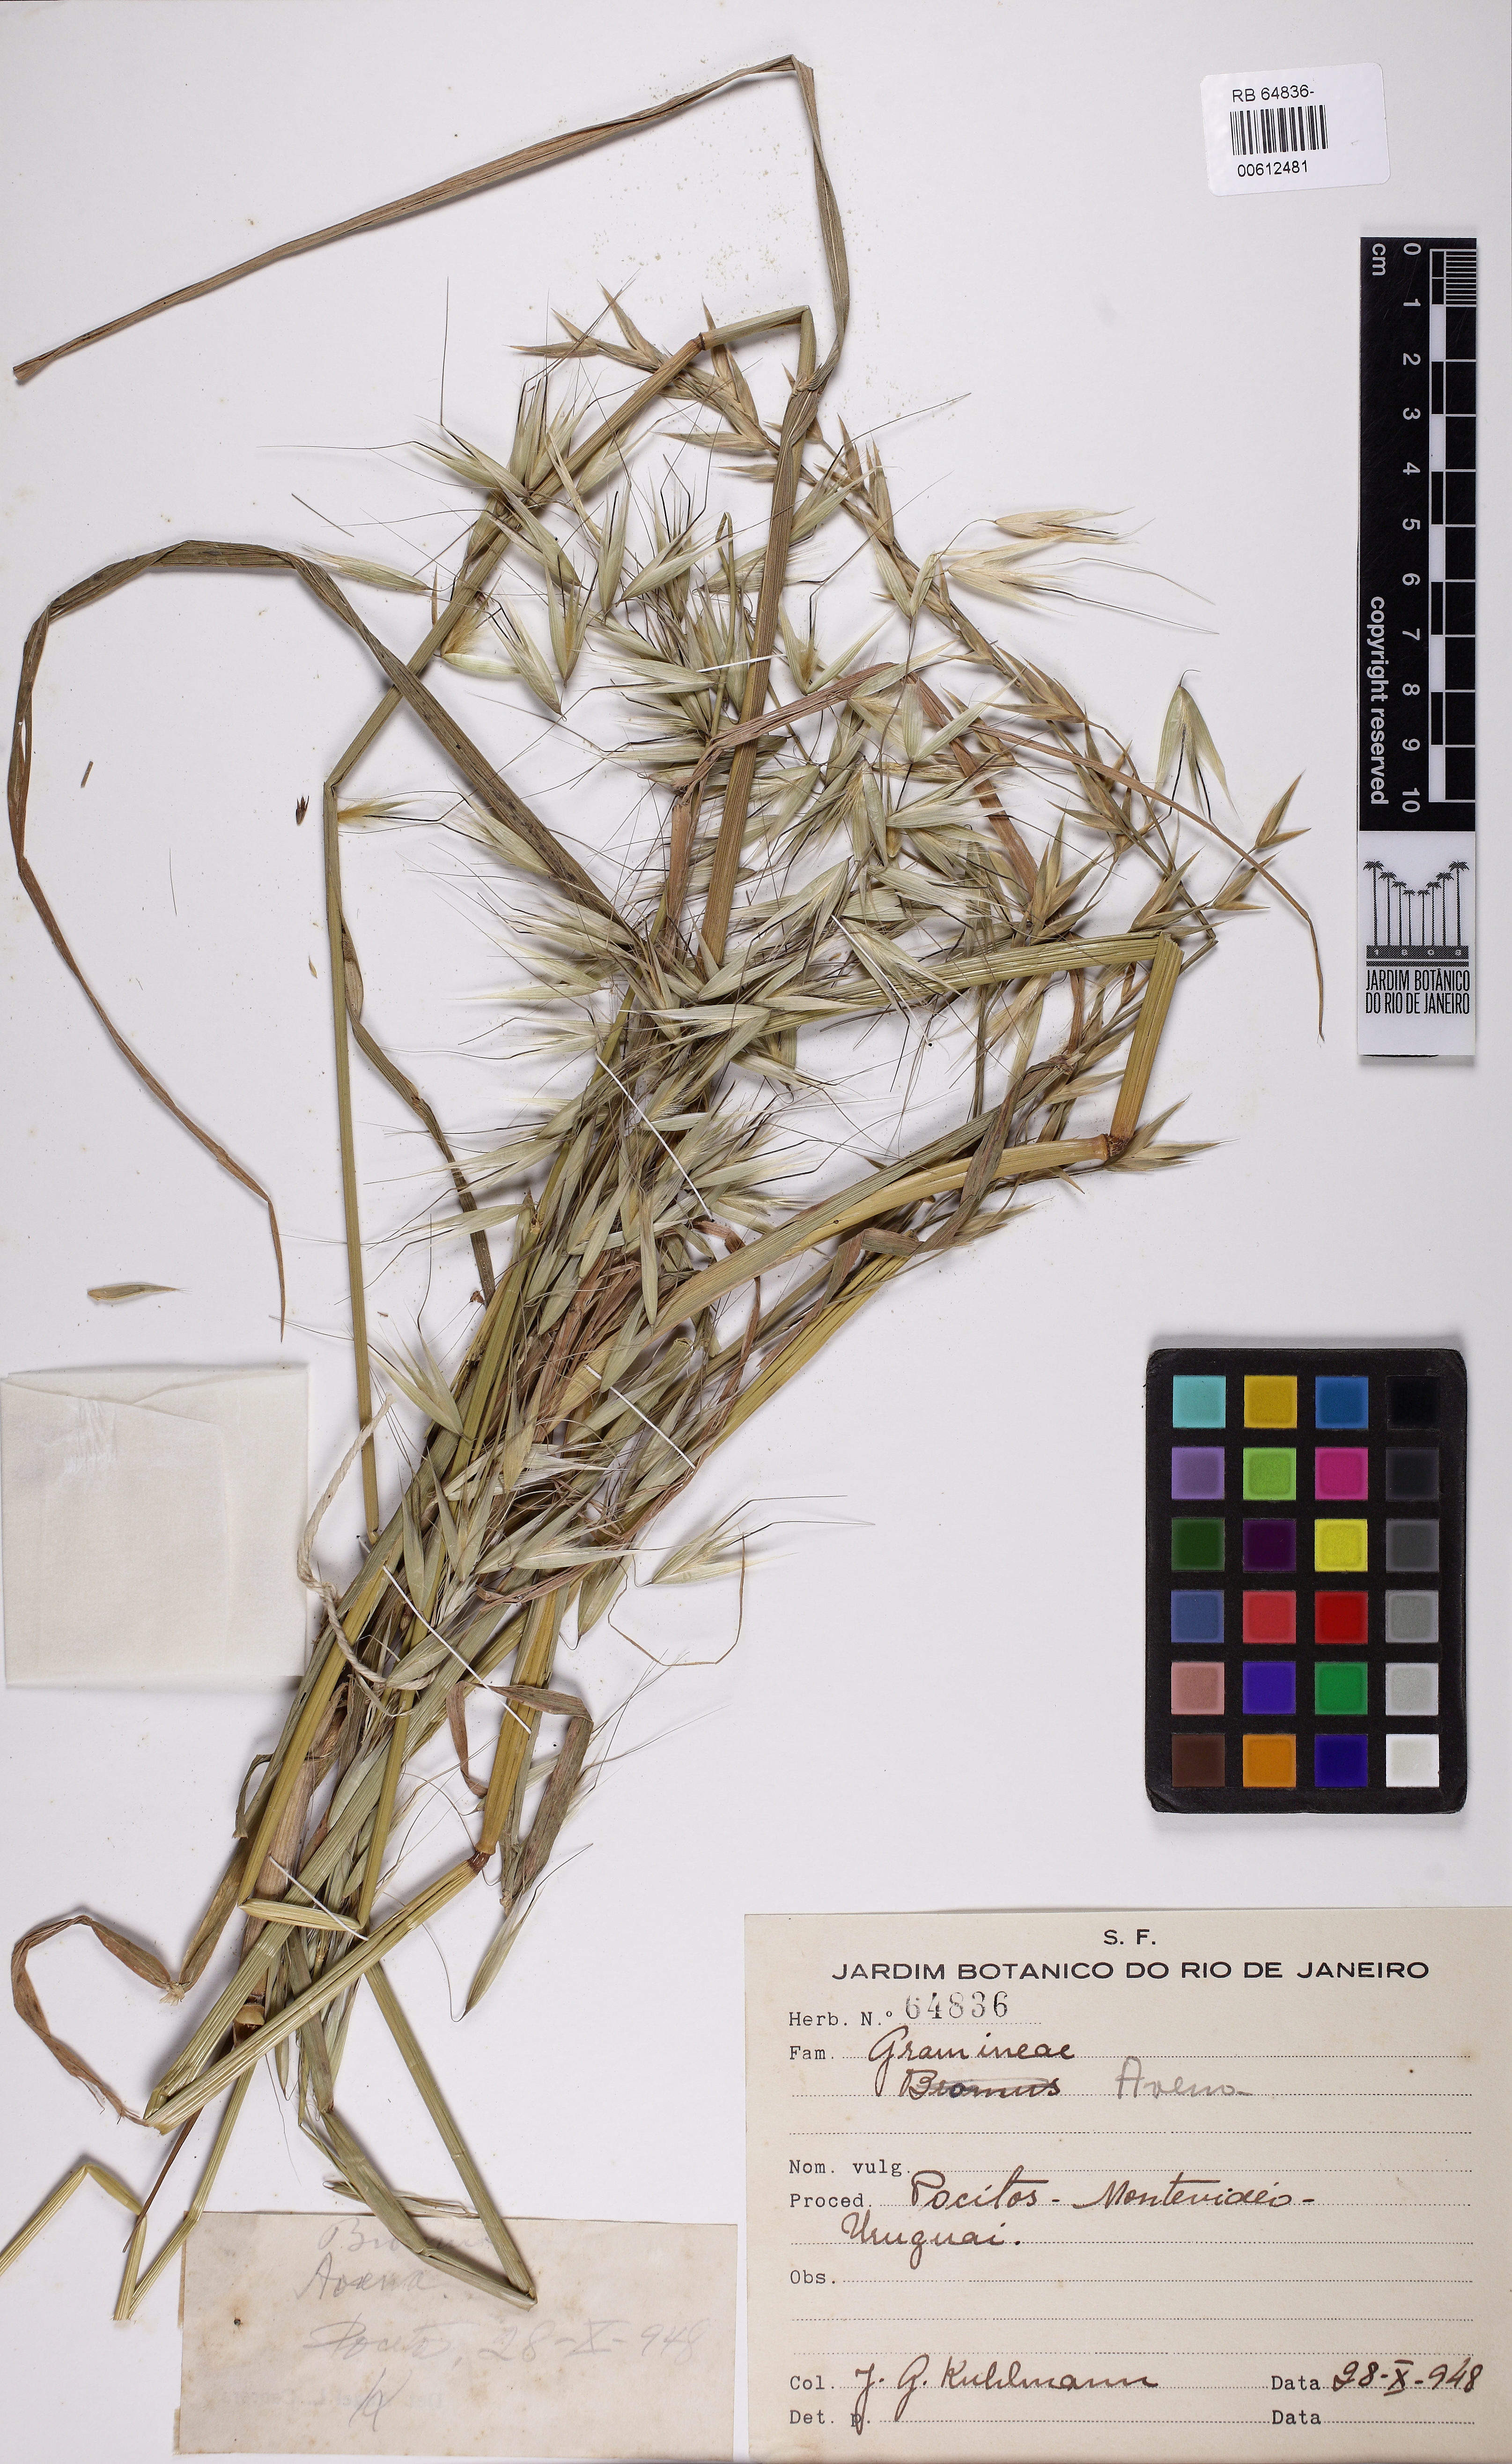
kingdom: Plantae
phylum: Tracheophyta
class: Liliopsida
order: Poales
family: Poaceae
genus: Avena
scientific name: Avena
